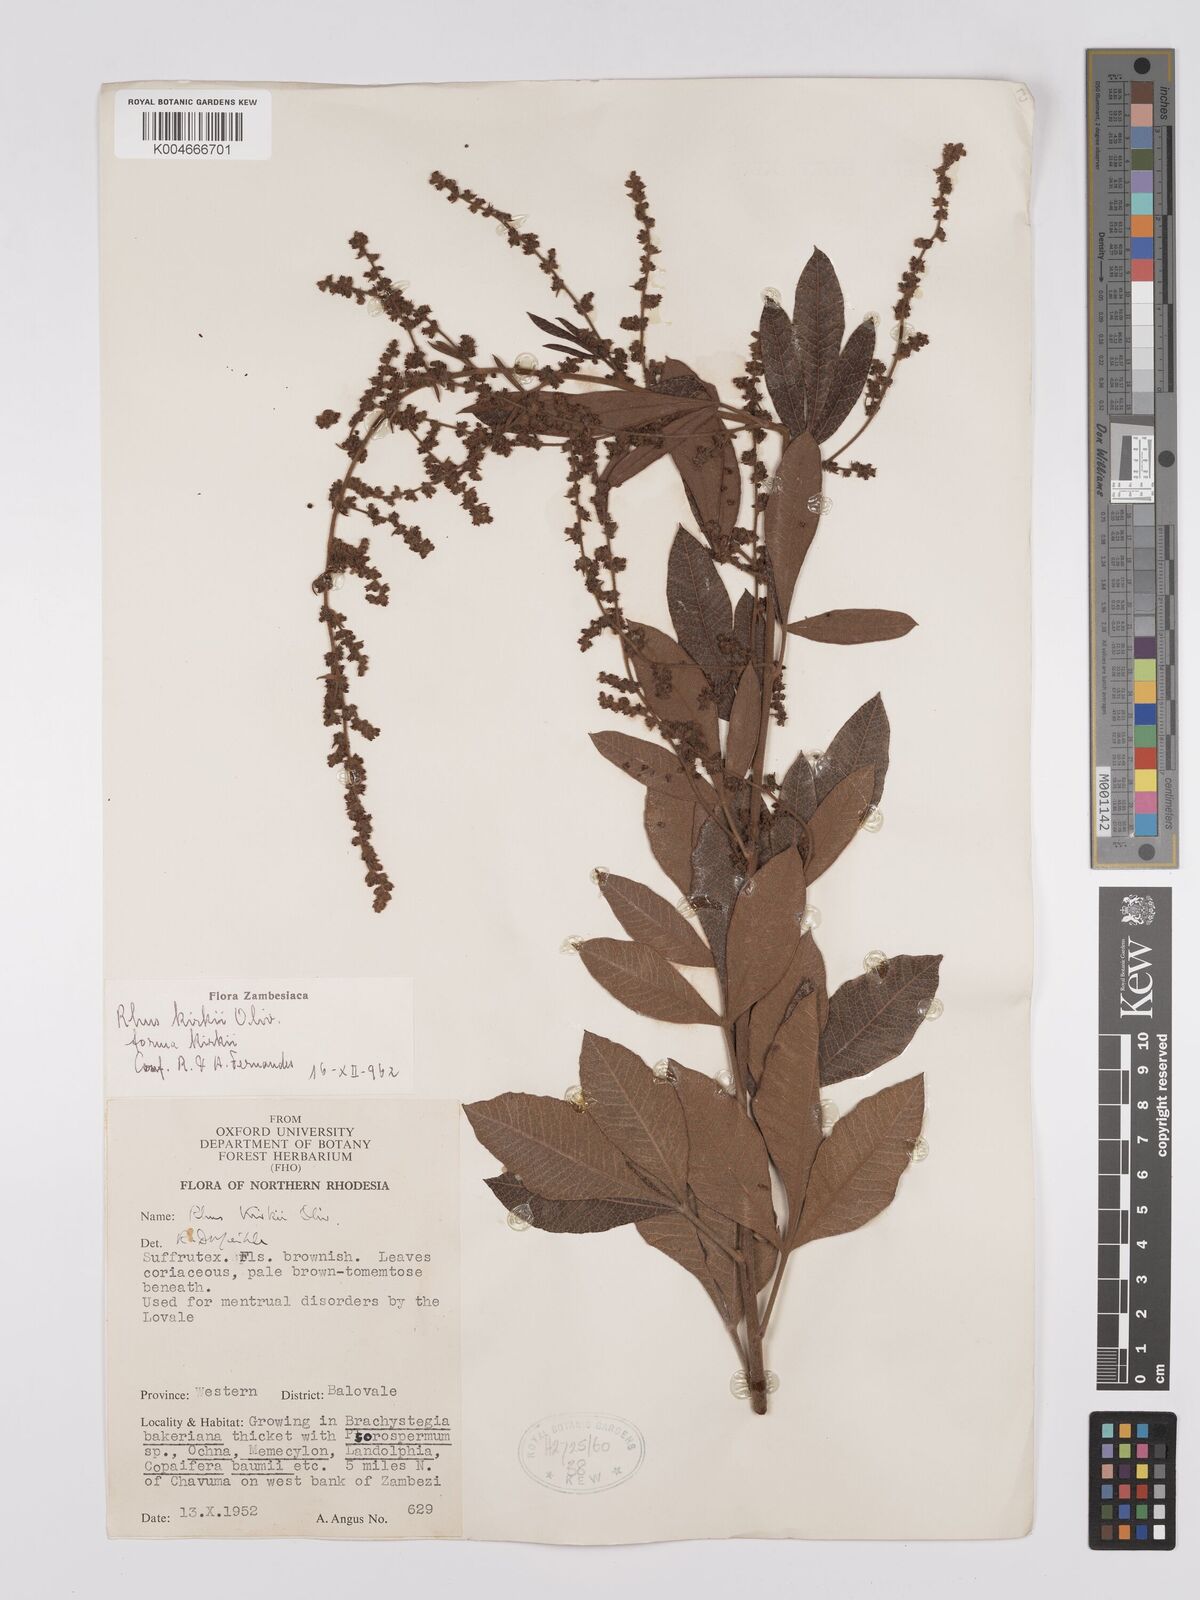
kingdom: Plantae
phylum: Tracheophyta
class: Magnoliopsida
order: Sapindales
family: Anacardiaceae
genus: Searsia
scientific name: Searsia kirkii
